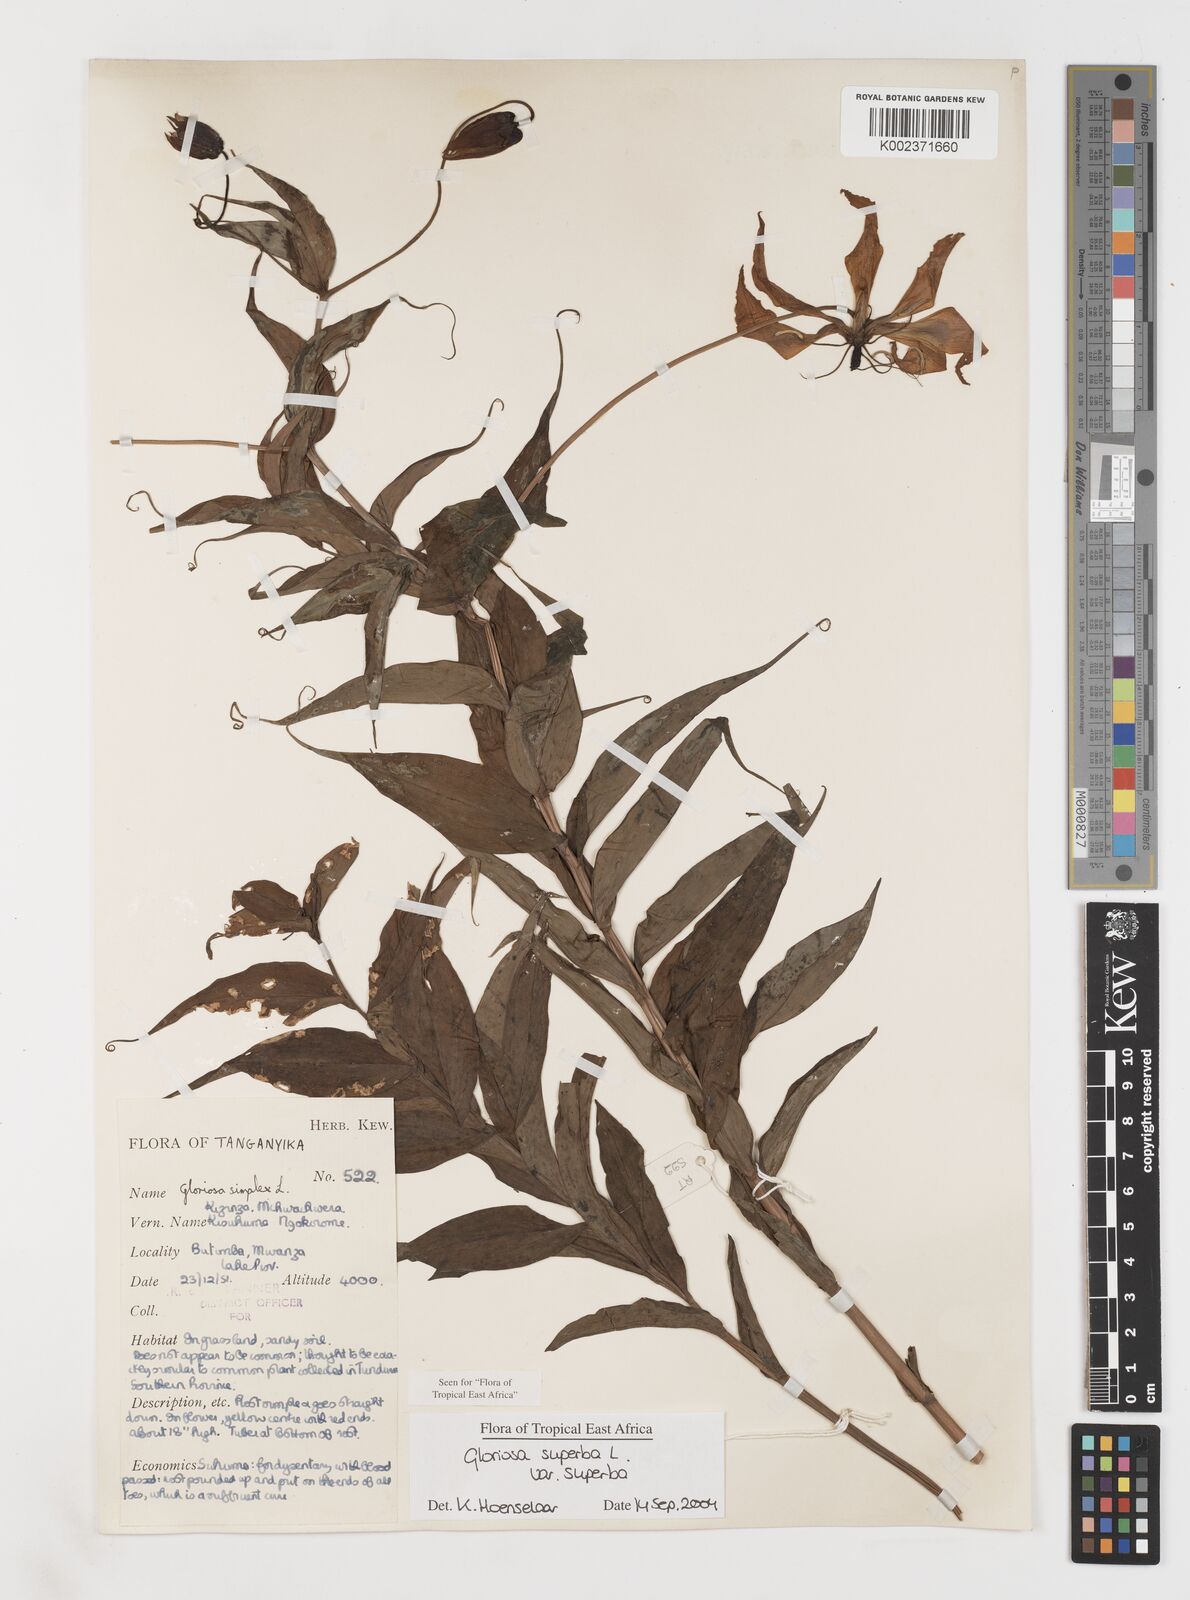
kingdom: Plantae
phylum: Tracheophyta
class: Liliopsida
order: Liliales
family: Colchicaceae
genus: Gloriosa
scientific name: Gloriosa simplex
